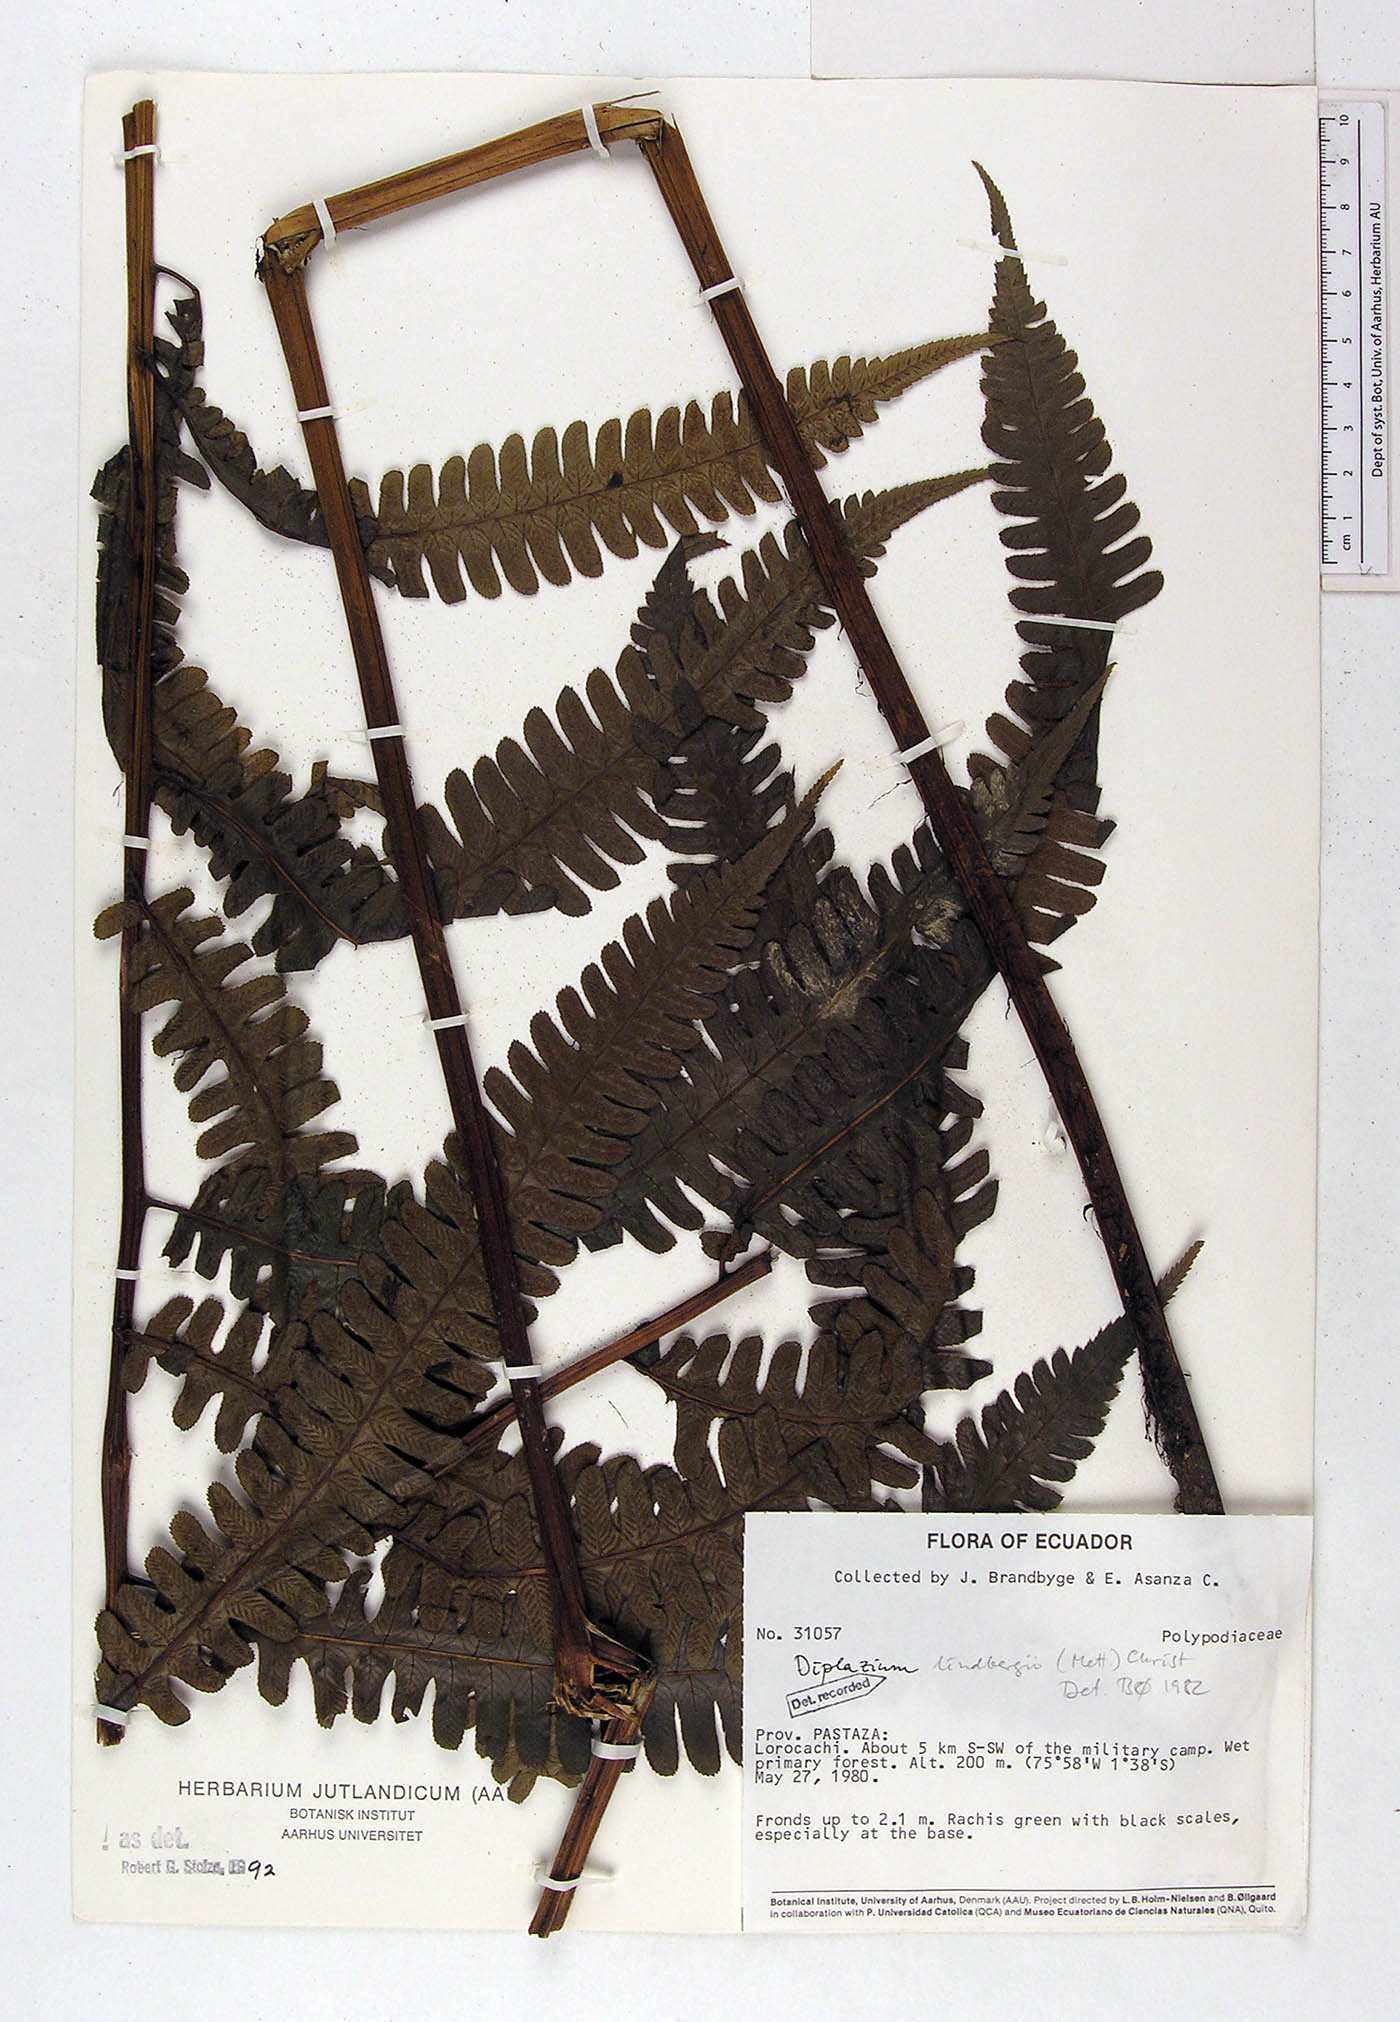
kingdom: Plantae
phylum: Tracheophyta
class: Polypodiopsida
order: Polypodiales
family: Athyriaceae
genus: Diplazium
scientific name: Diplazium lindbergii
